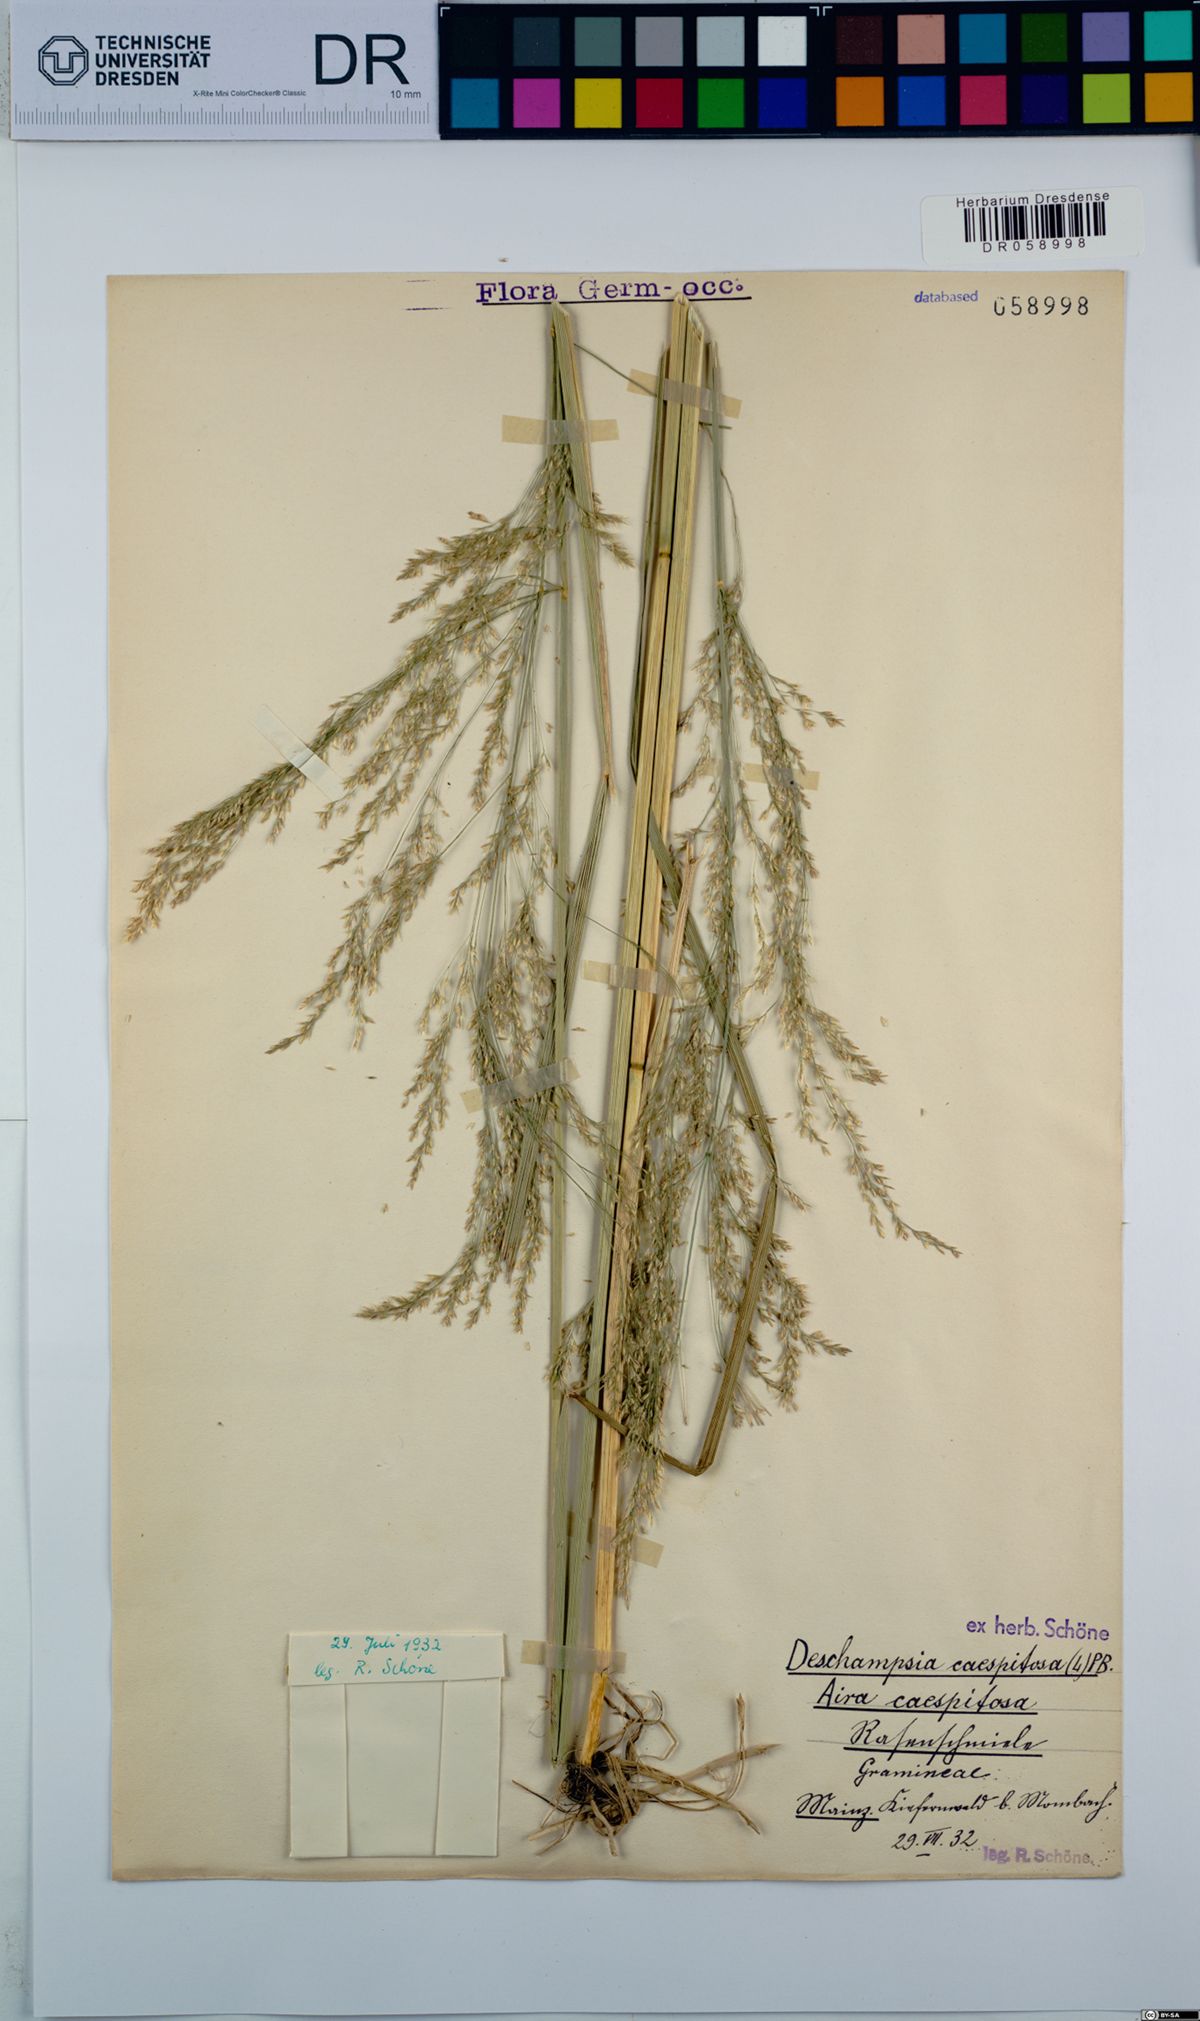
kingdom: Plantae
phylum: Tracheophyta
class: Liliopsida
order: Poales
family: Poaceae
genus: Deschampsia
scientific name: Deschampsia cespitosa
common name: Tufted hair-grass
